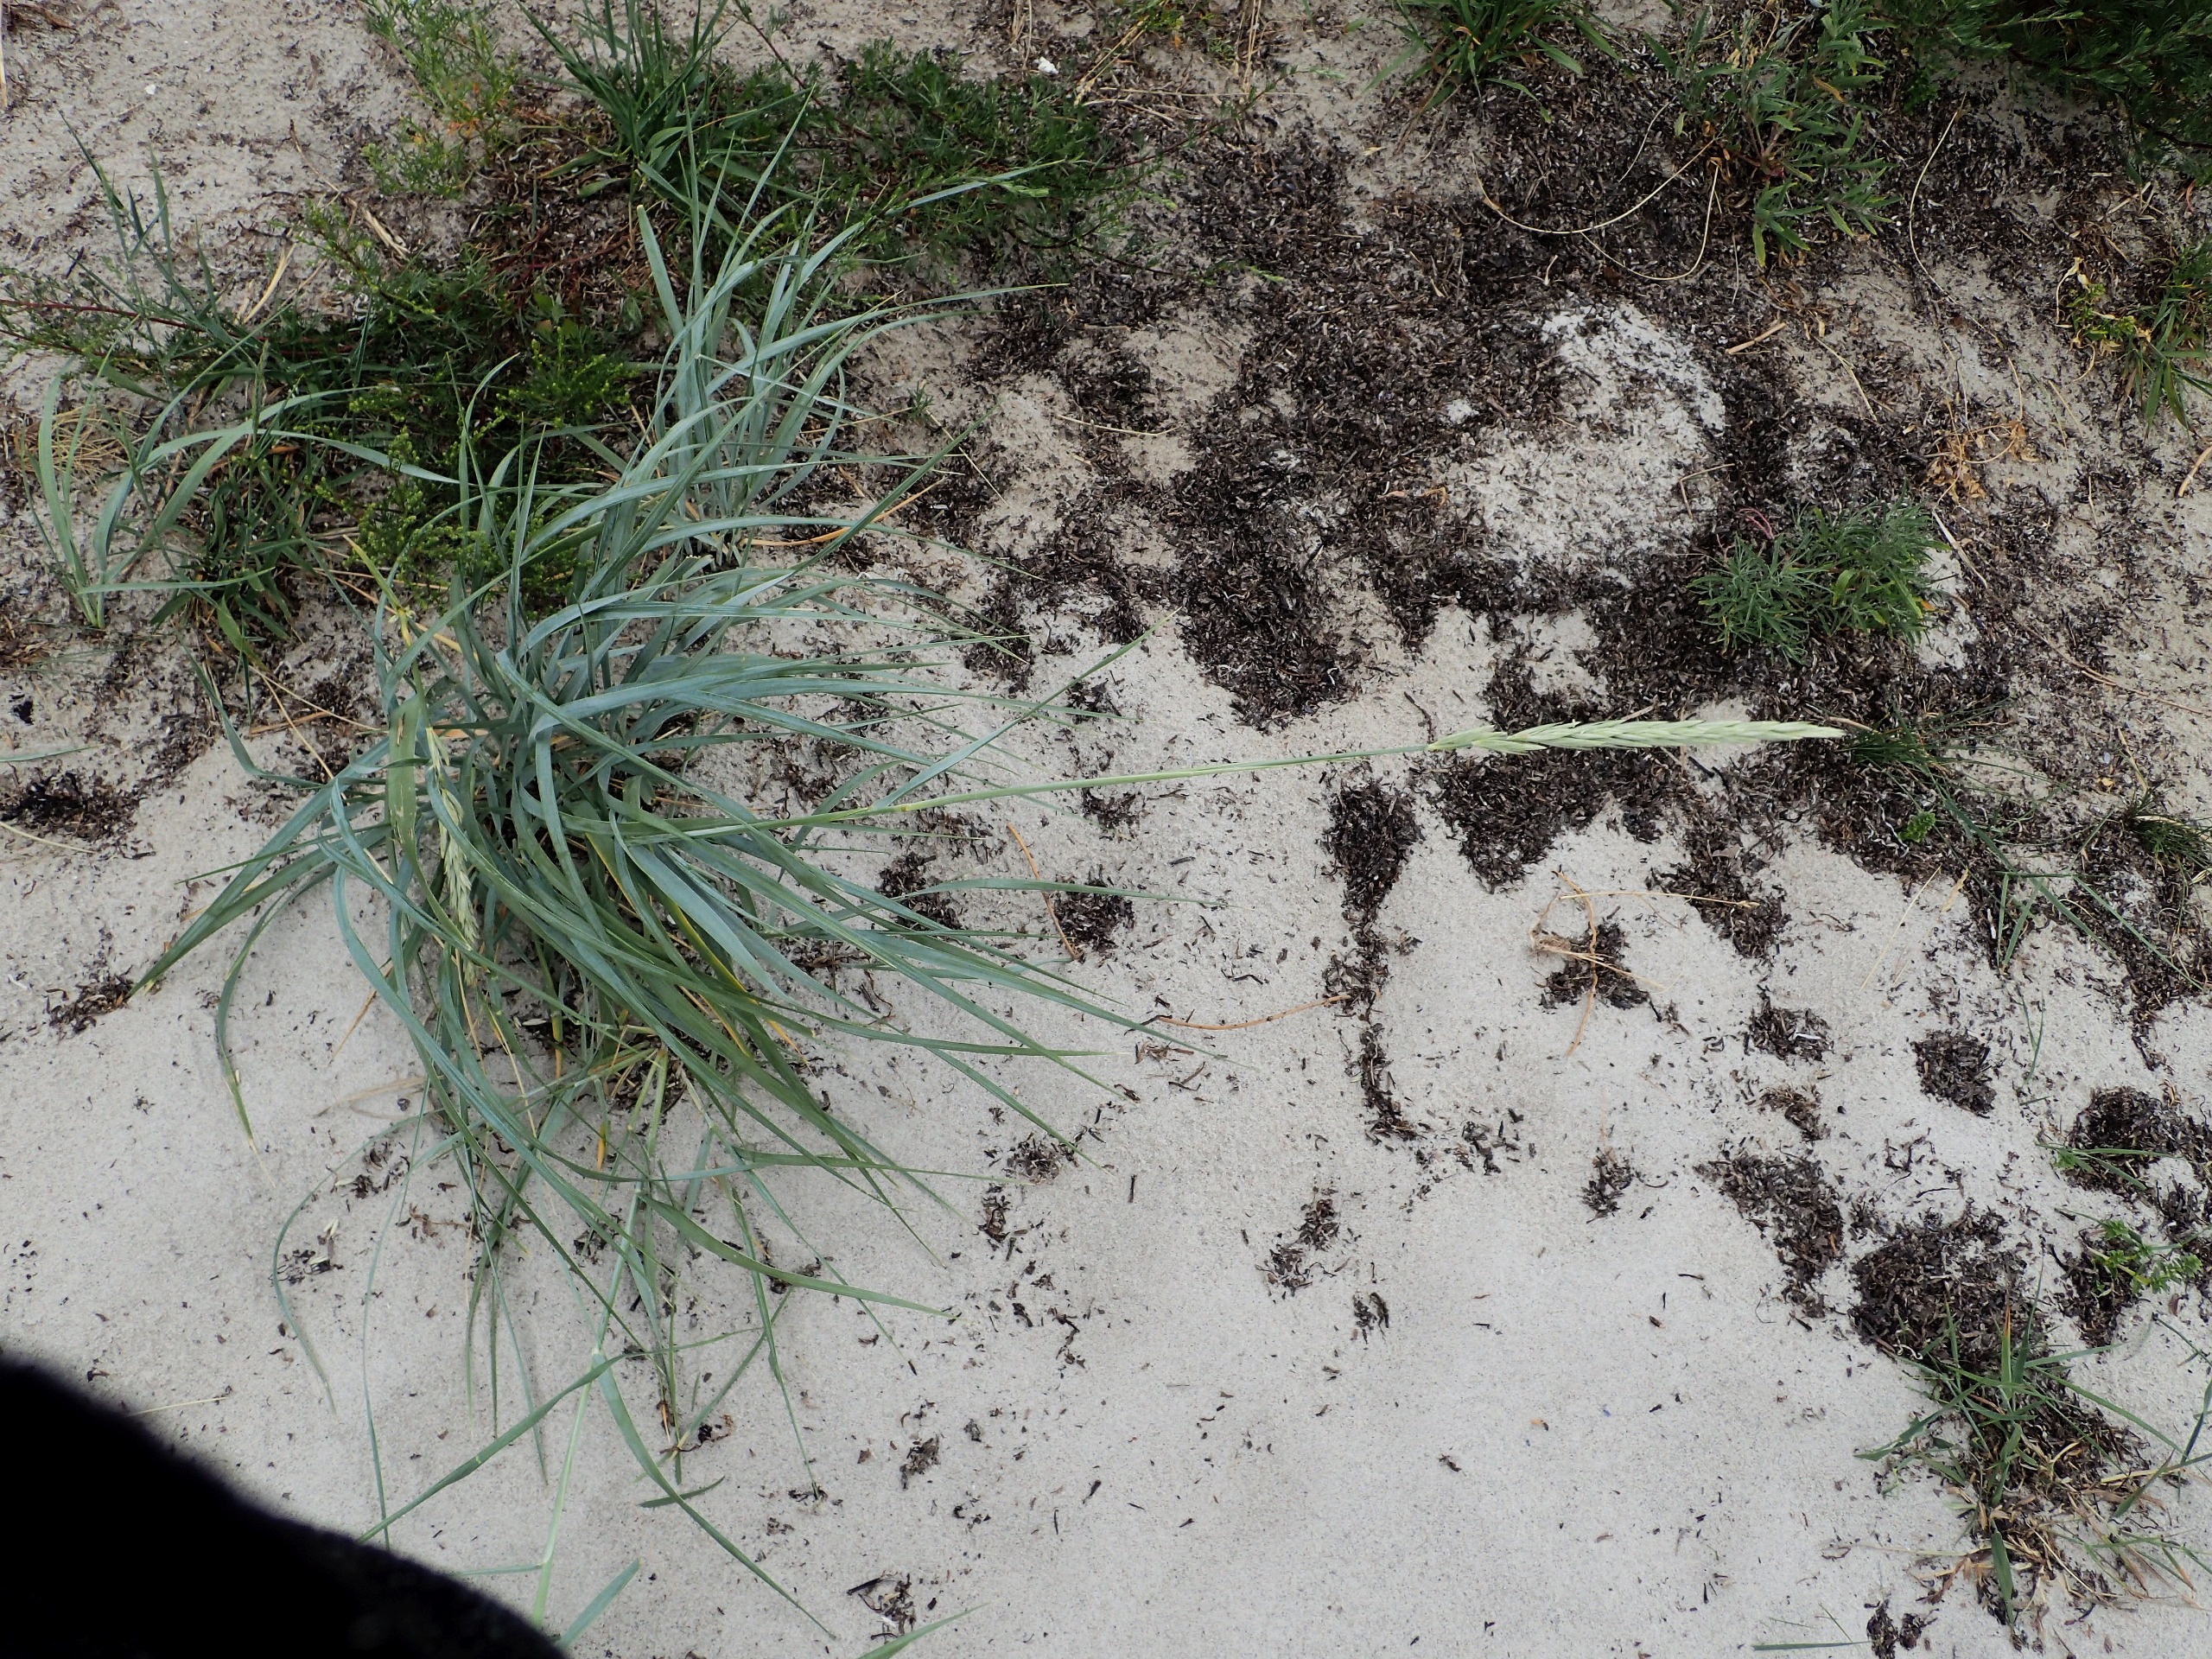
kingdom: Plantae
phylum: Tracheophyta
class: Liliopsida
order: Poales
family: Poaceae
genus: Leymus
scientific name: Leymus arenarius
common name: Marehalm
